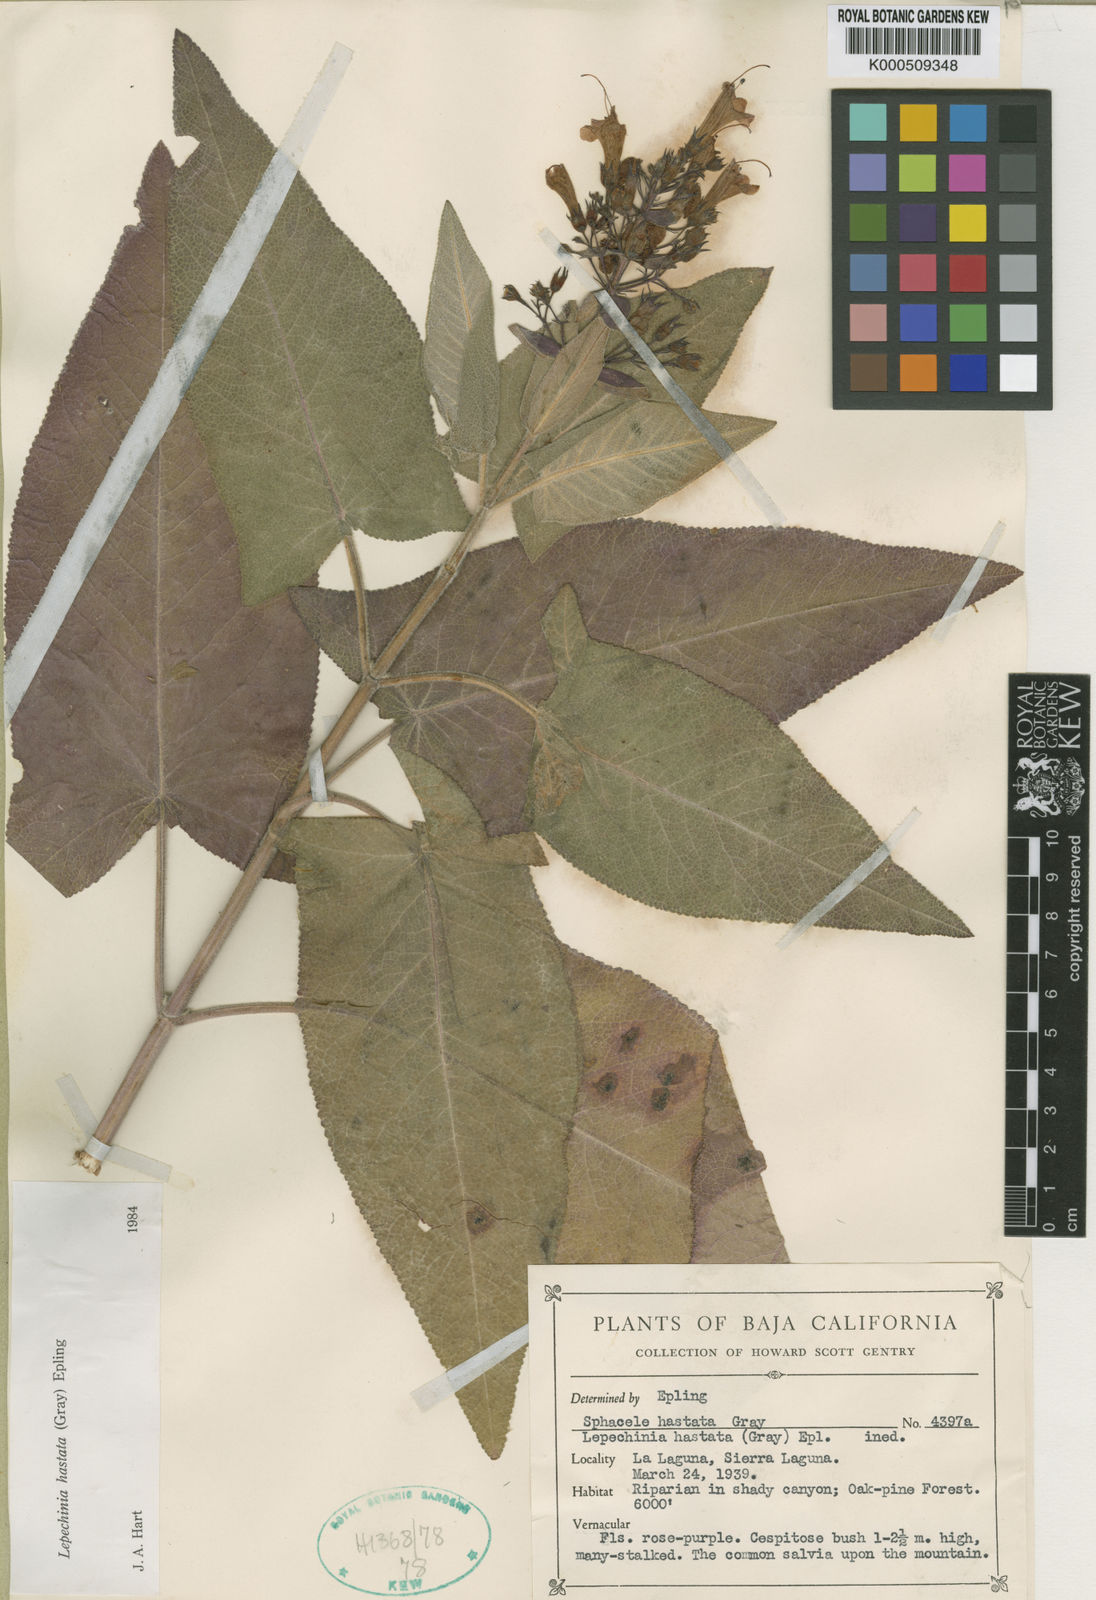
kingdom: Plantae
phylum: Tracheophyta
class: Magnoliopsida
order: Lamiales
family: Lamiaceae
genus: Lepechinia
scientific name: Lepechinia hastata
